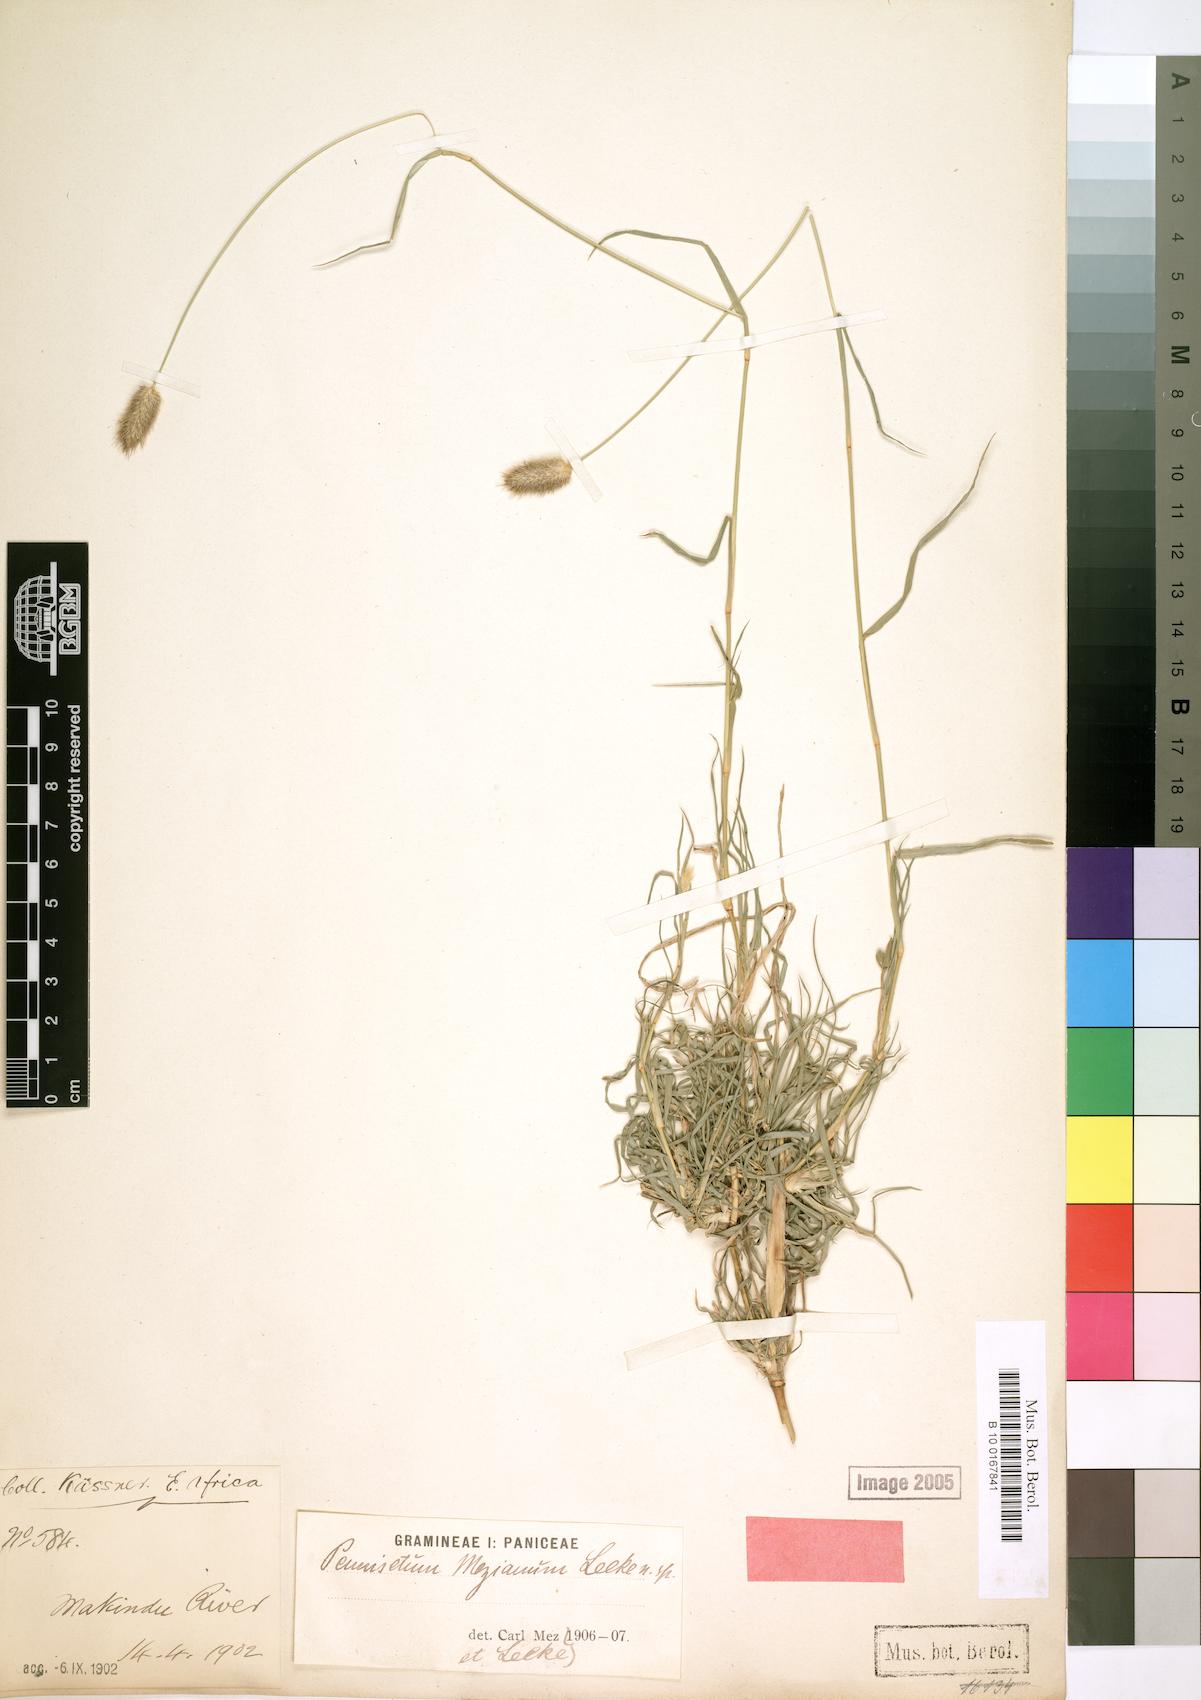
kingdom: Plantae
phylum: Tracheophyta
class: Liliopsida
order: Poales
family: Poaceae
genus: Cenchrus
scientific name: Cenchrus mezianus
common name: Bamboo grass
